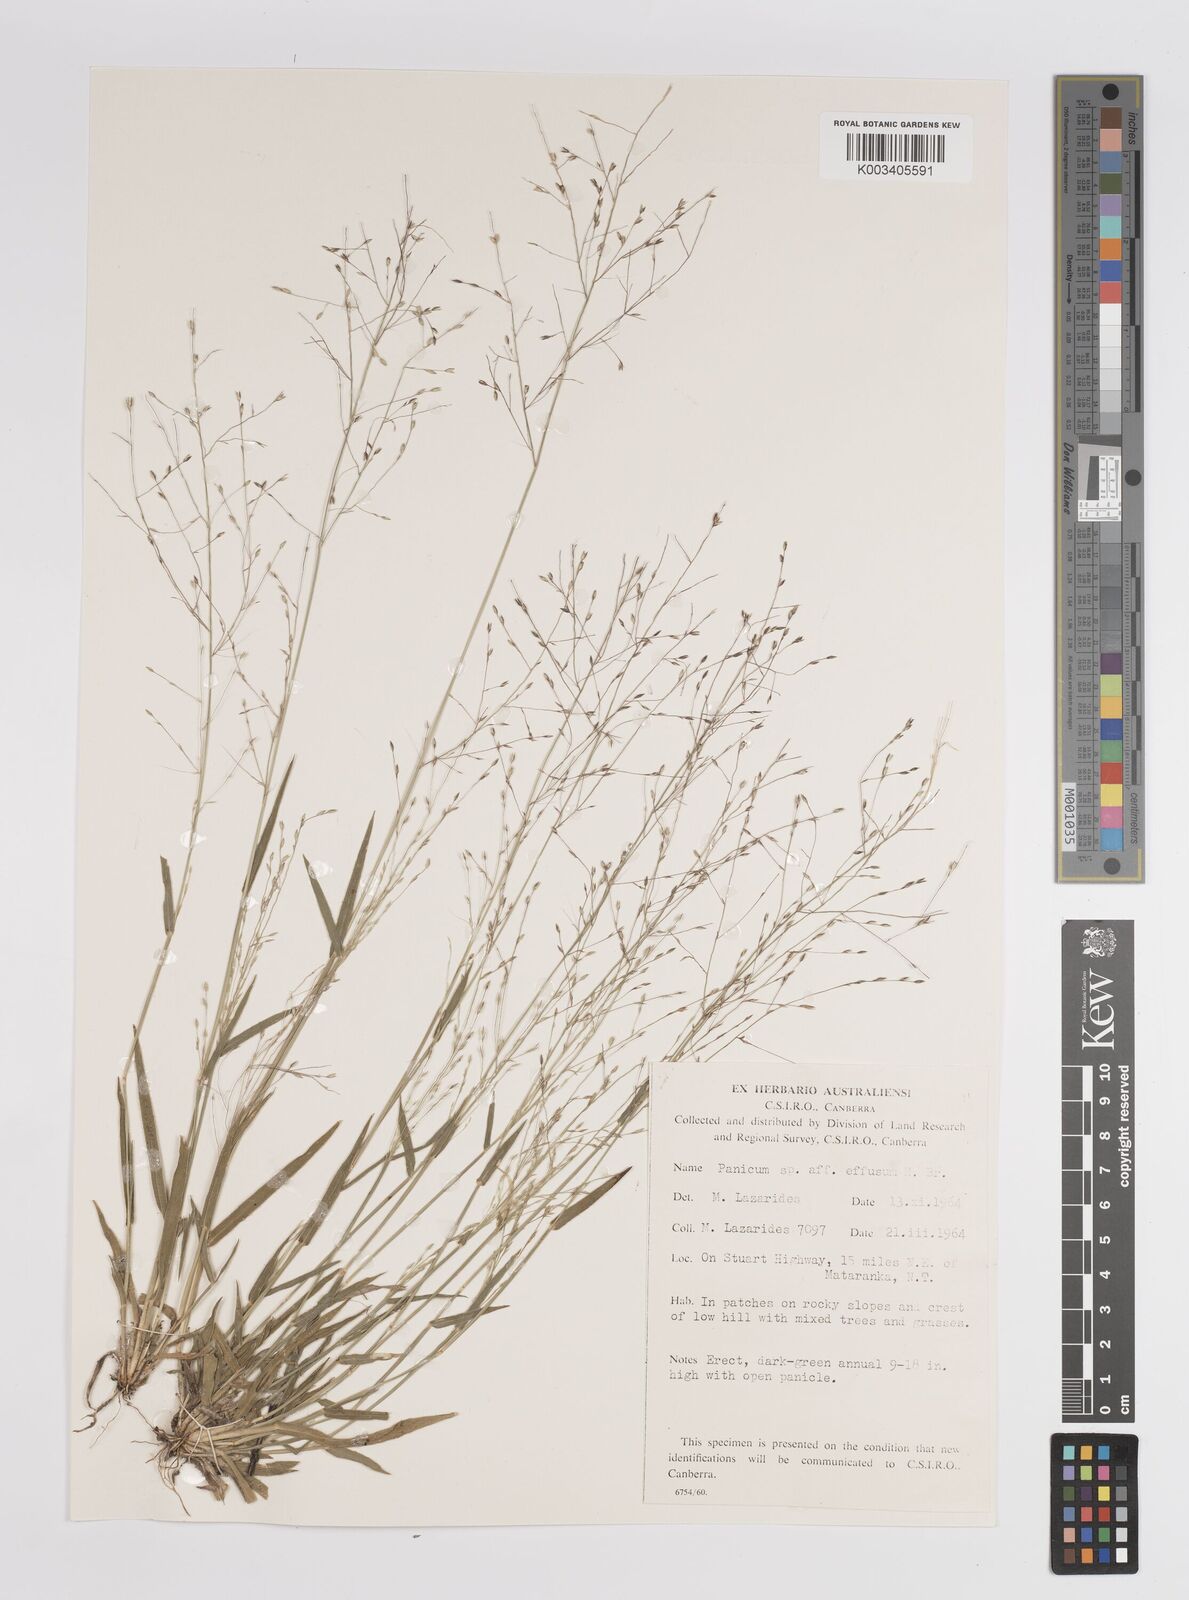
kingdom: Plantae
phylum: Tracheophyta
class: Liliopsida
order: Poales
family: Poaceae
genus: Panicum
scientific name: Panicum
